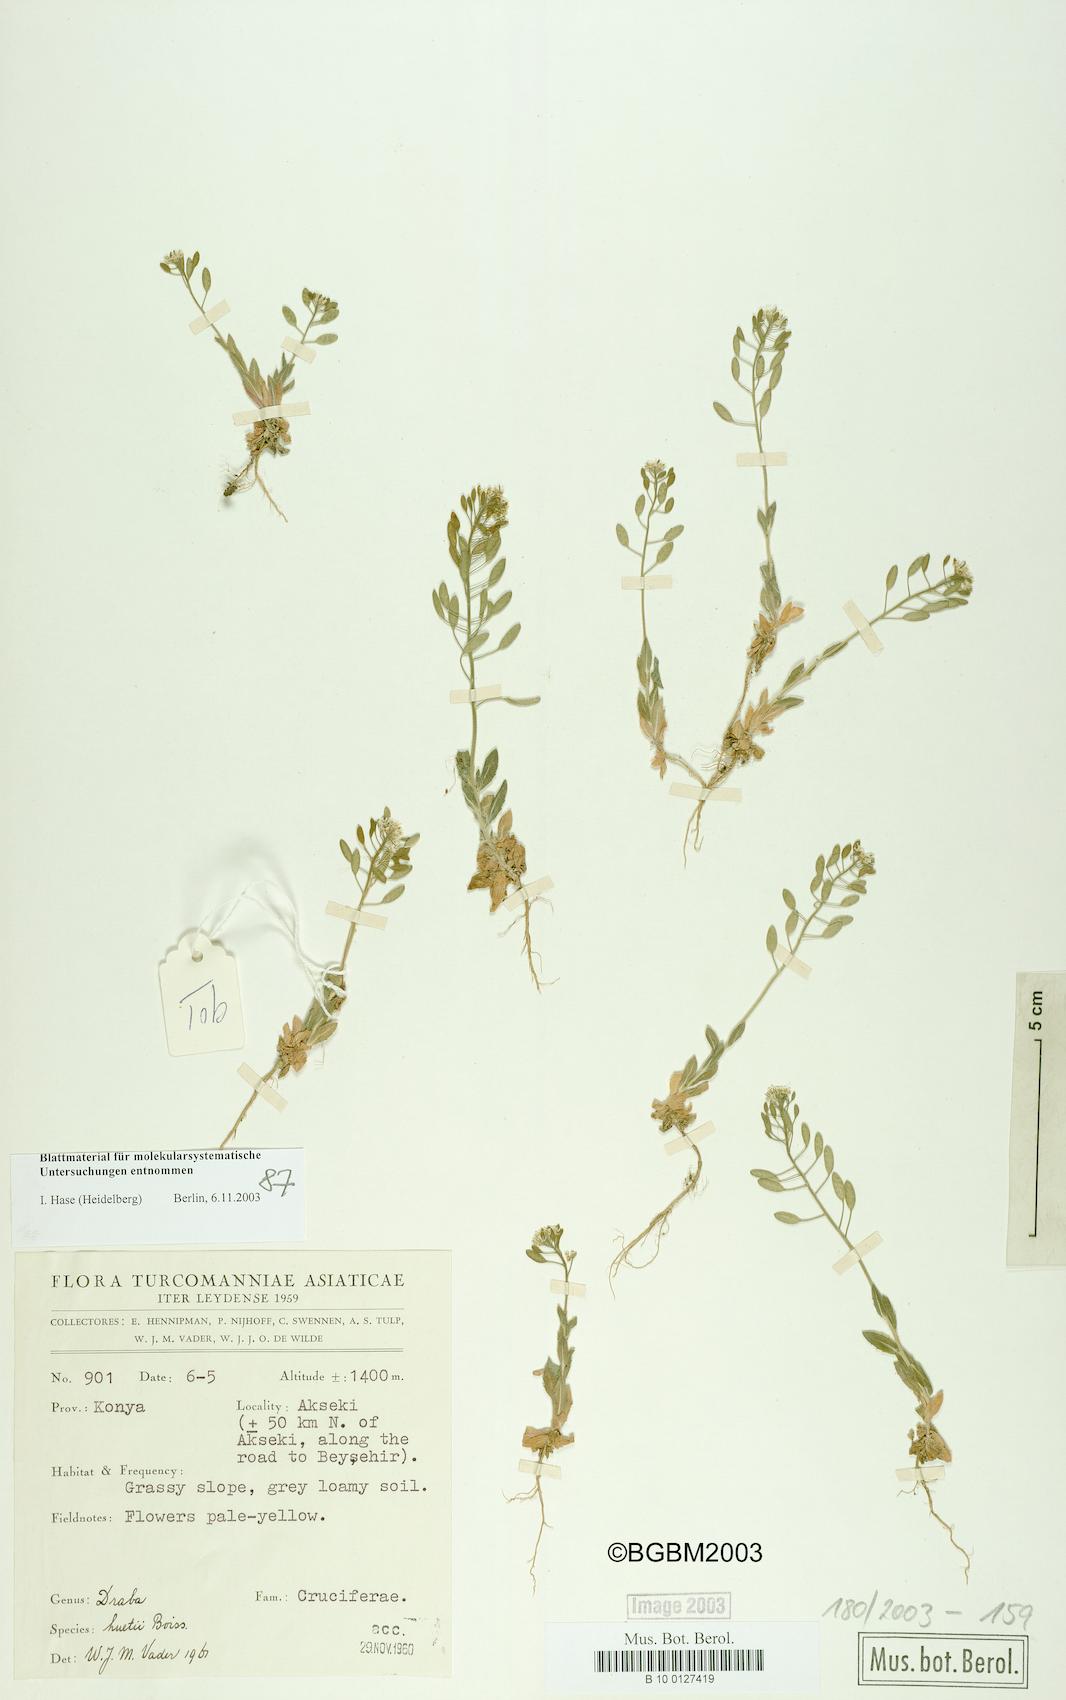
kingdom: Plantae
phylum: Tracheophyta
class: Magnoliopsida
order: Brassicales
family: Brassicaceae
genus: Draba
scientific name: Draba huetii
